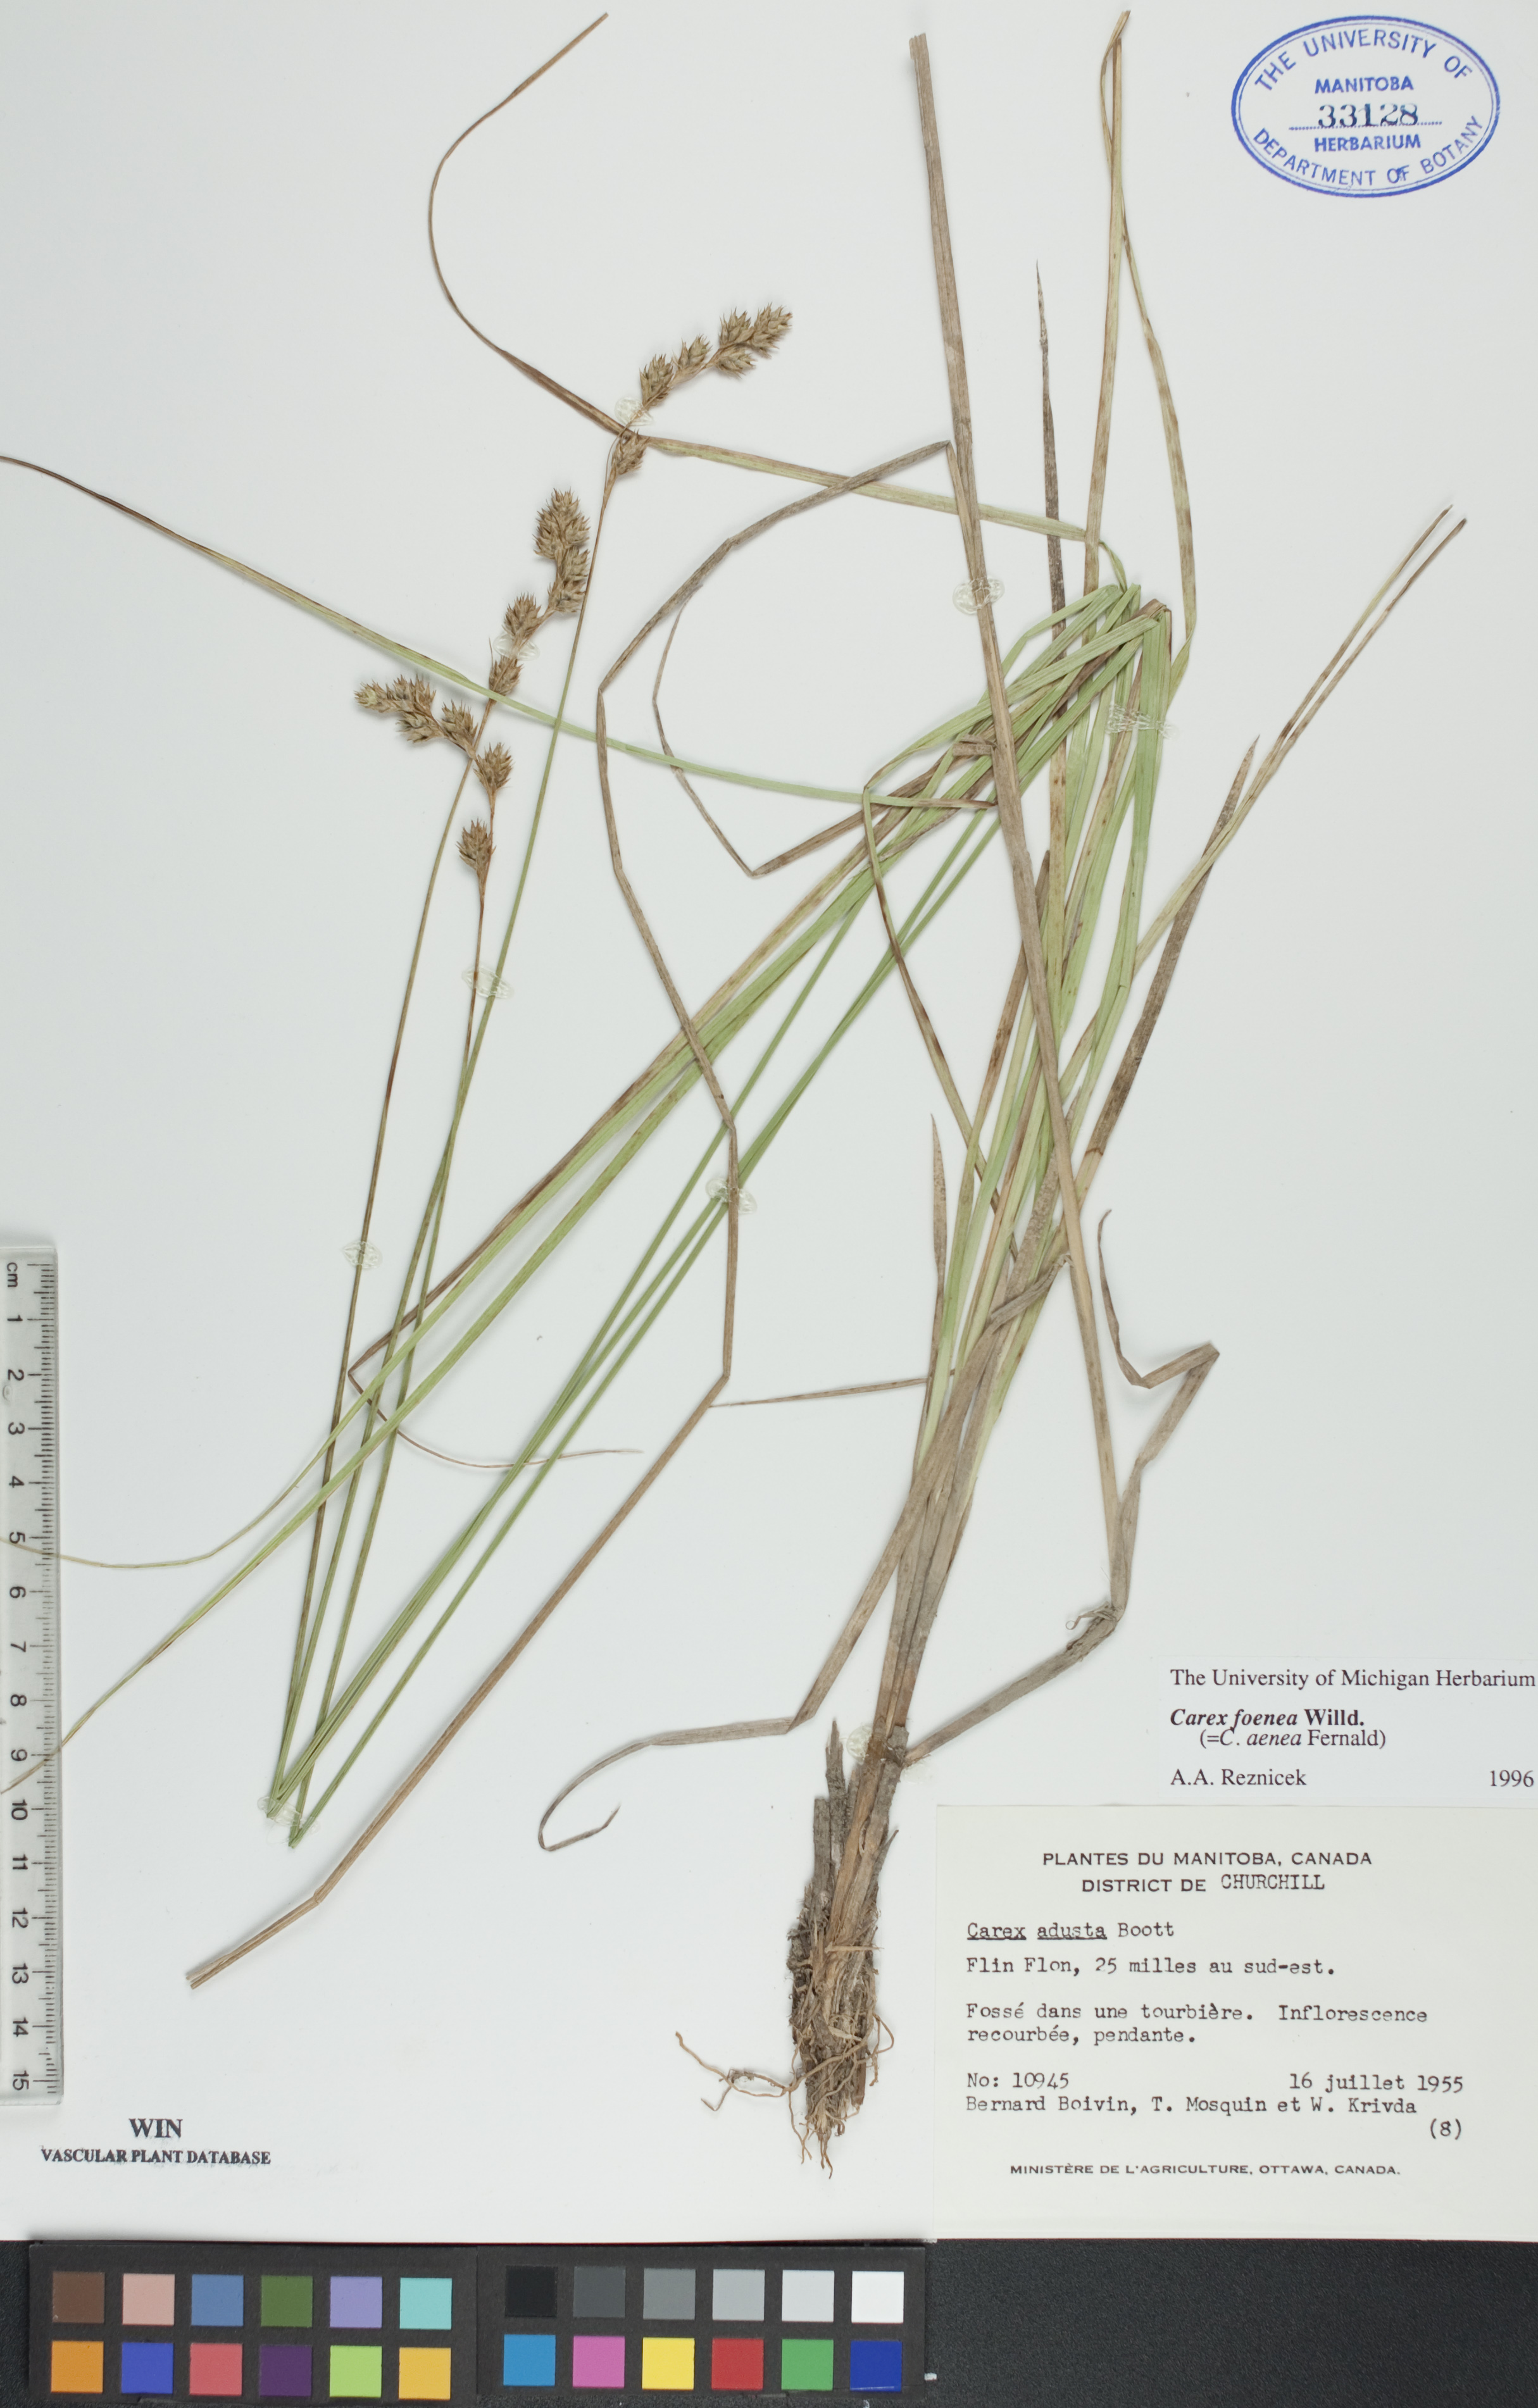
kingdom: Plantae
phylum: Tracheophyta
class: Liliopsida
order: Poales
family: Cyperaceae
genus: Carex
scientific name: Carex foenea
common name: Bronze sedge
